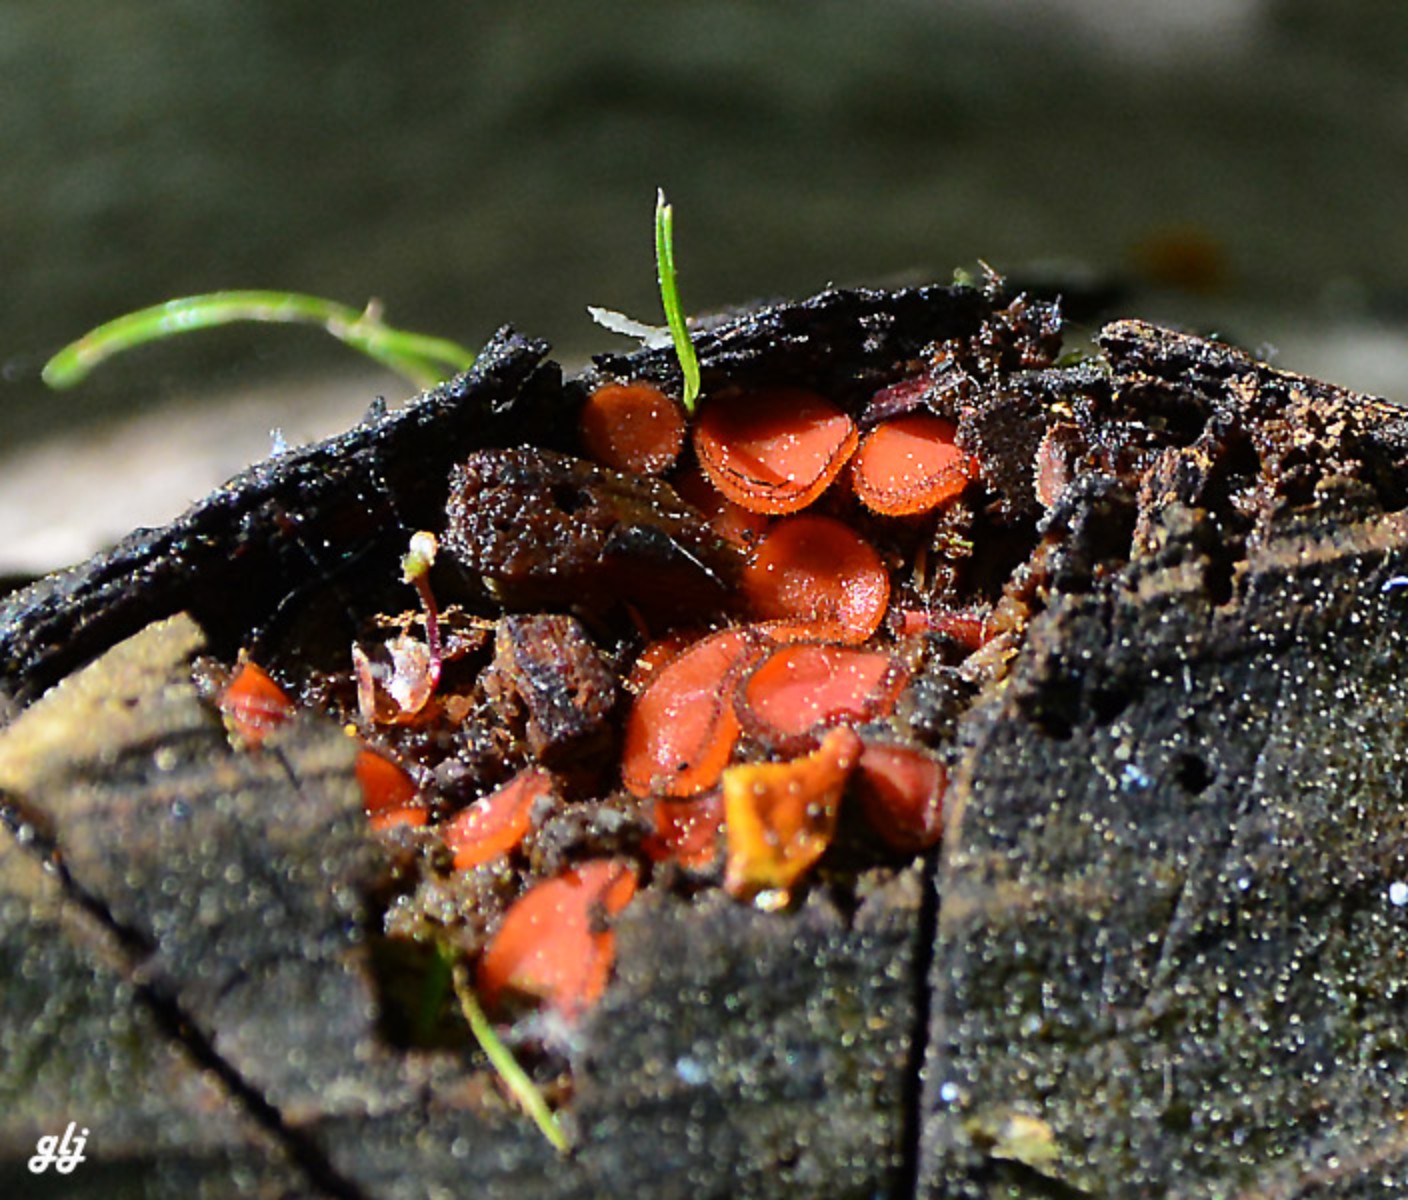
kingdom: Fungi
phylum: Ascomycota
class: Pezizomycetes
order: Pezizales
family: Pyronemataceae
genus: Scutellinia
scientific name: Scutellinia scutellata
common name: frynset skjoldbæger
